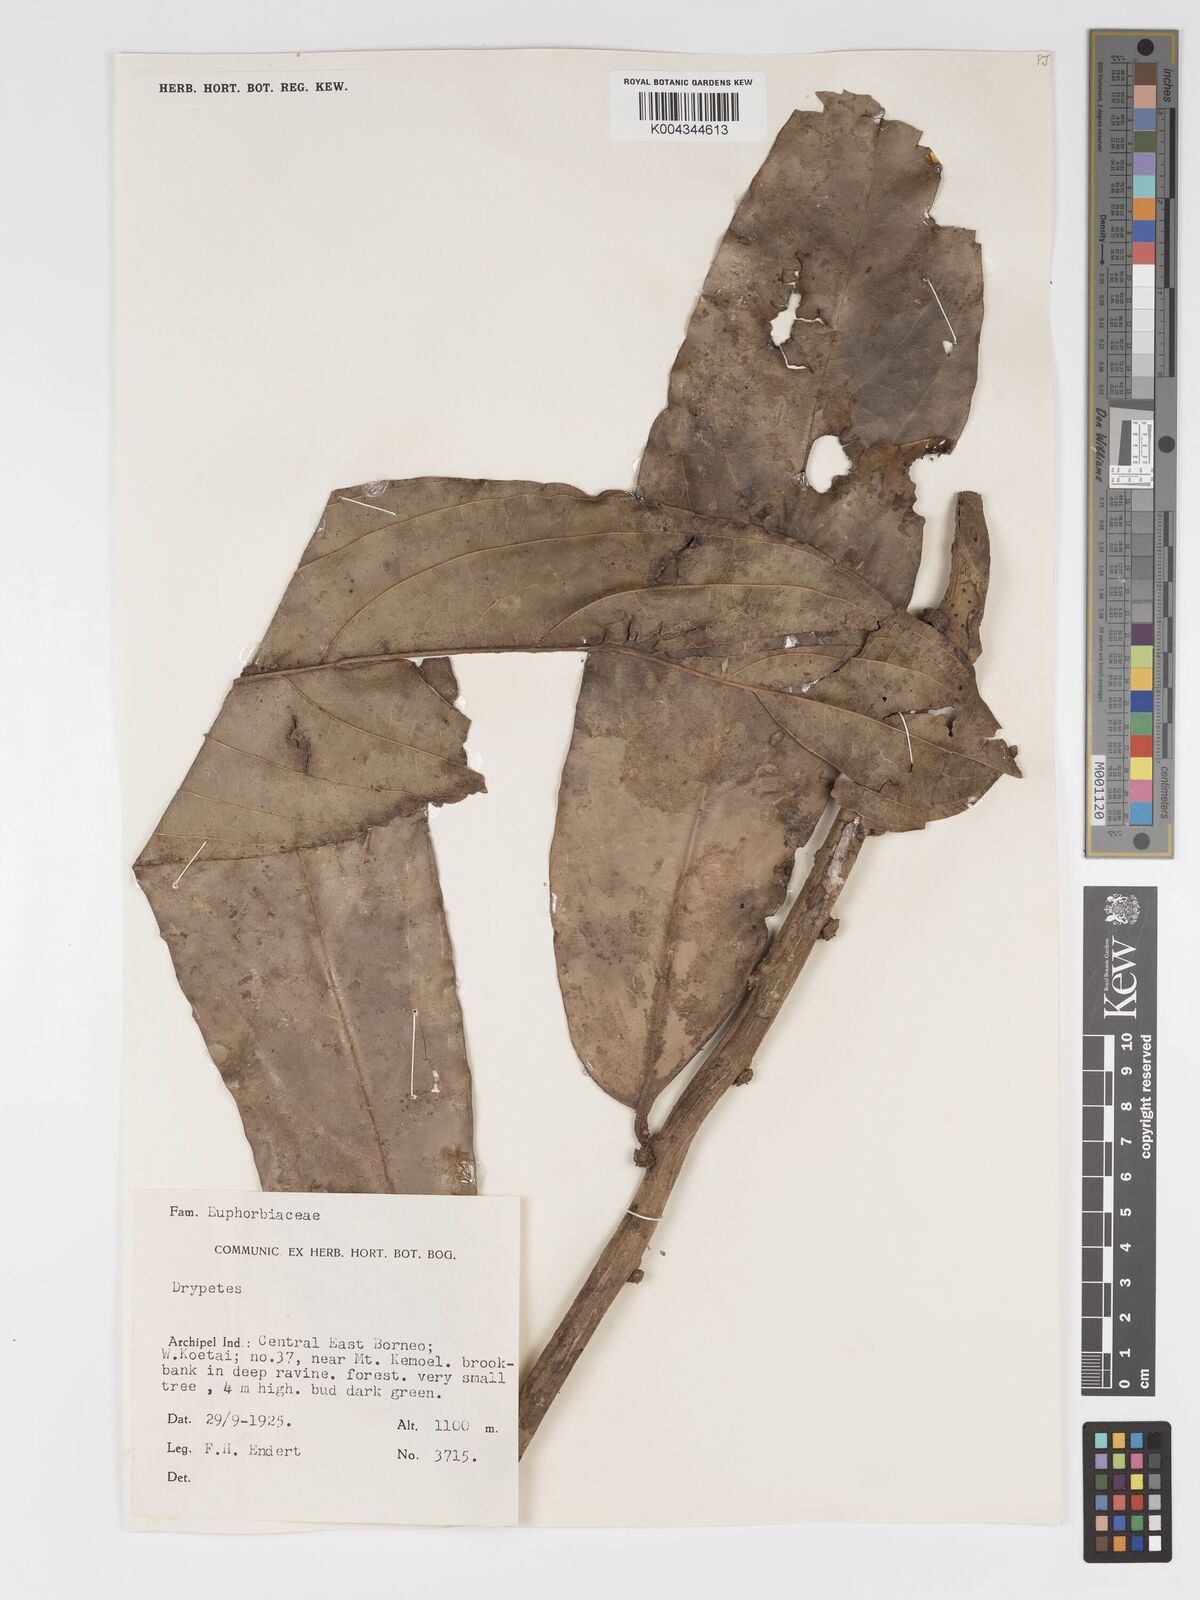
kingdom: Plantae
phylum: Tracheophyta
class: Magnoliopsida
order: Malpighiales
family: Putranjivaceae
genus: Drypetes
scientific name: Drypetes longifolia
